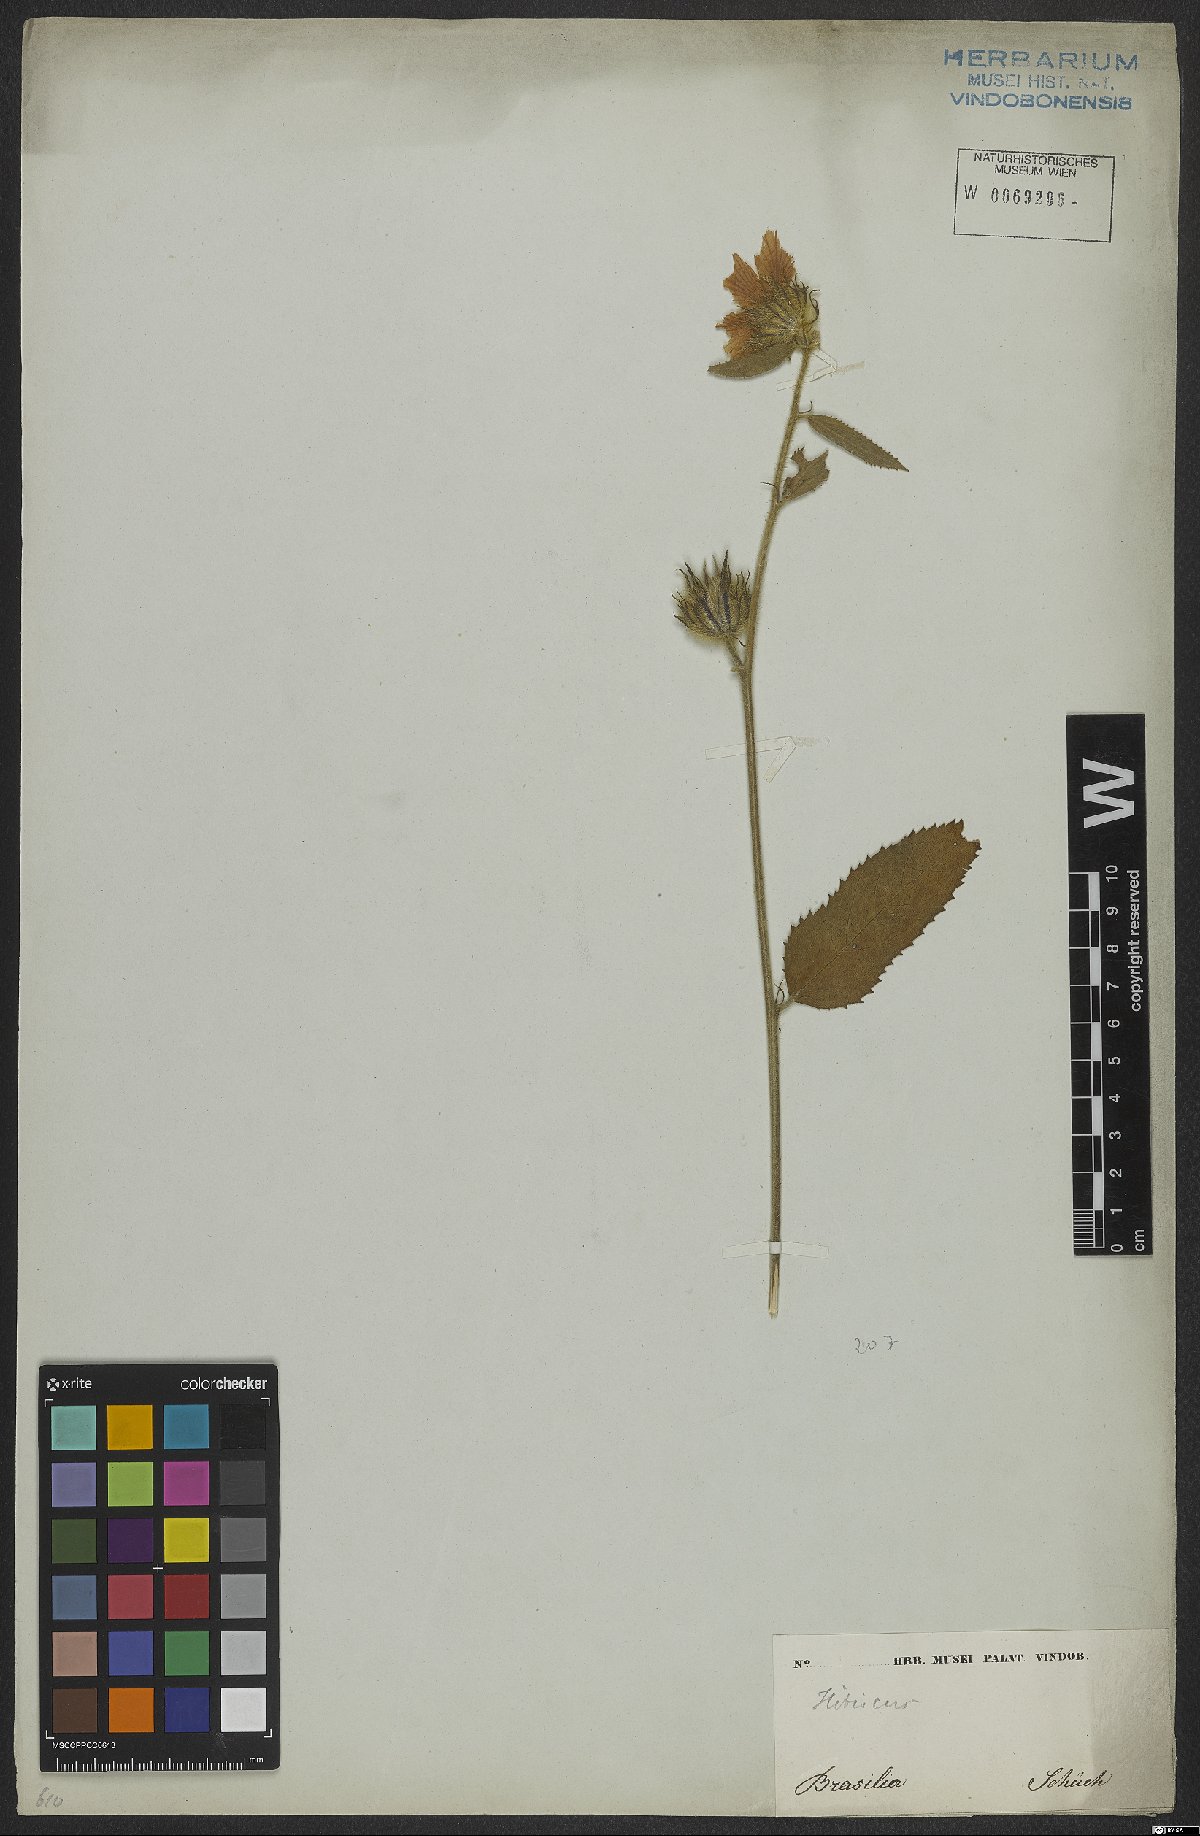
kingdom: Plantae
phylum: Tracheophyta
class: Magnoliopsida
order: Malvales
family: Malvaceae
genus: Hibiscus
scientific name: Hibiscus
